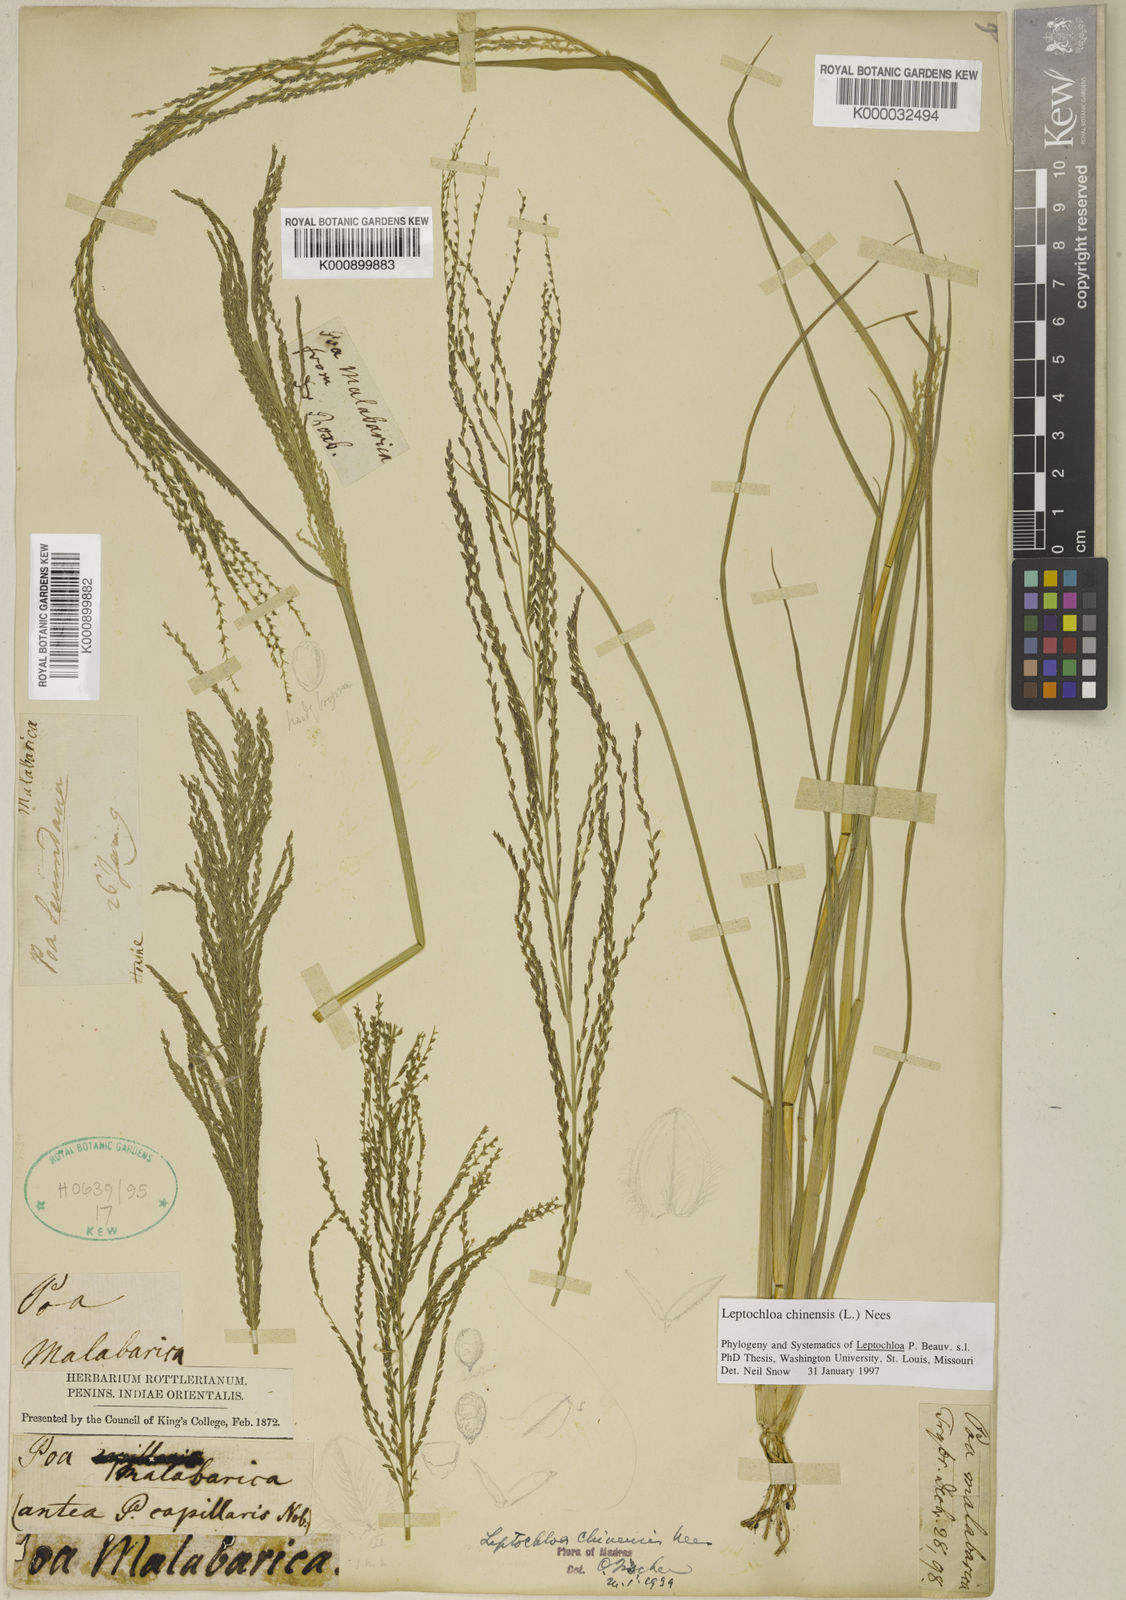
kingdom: Plantae
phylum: Tracheophyta
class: Liliopsida
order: Poales
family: Poaceae
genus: Leptochloa
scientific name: Leptochloa chinensis
